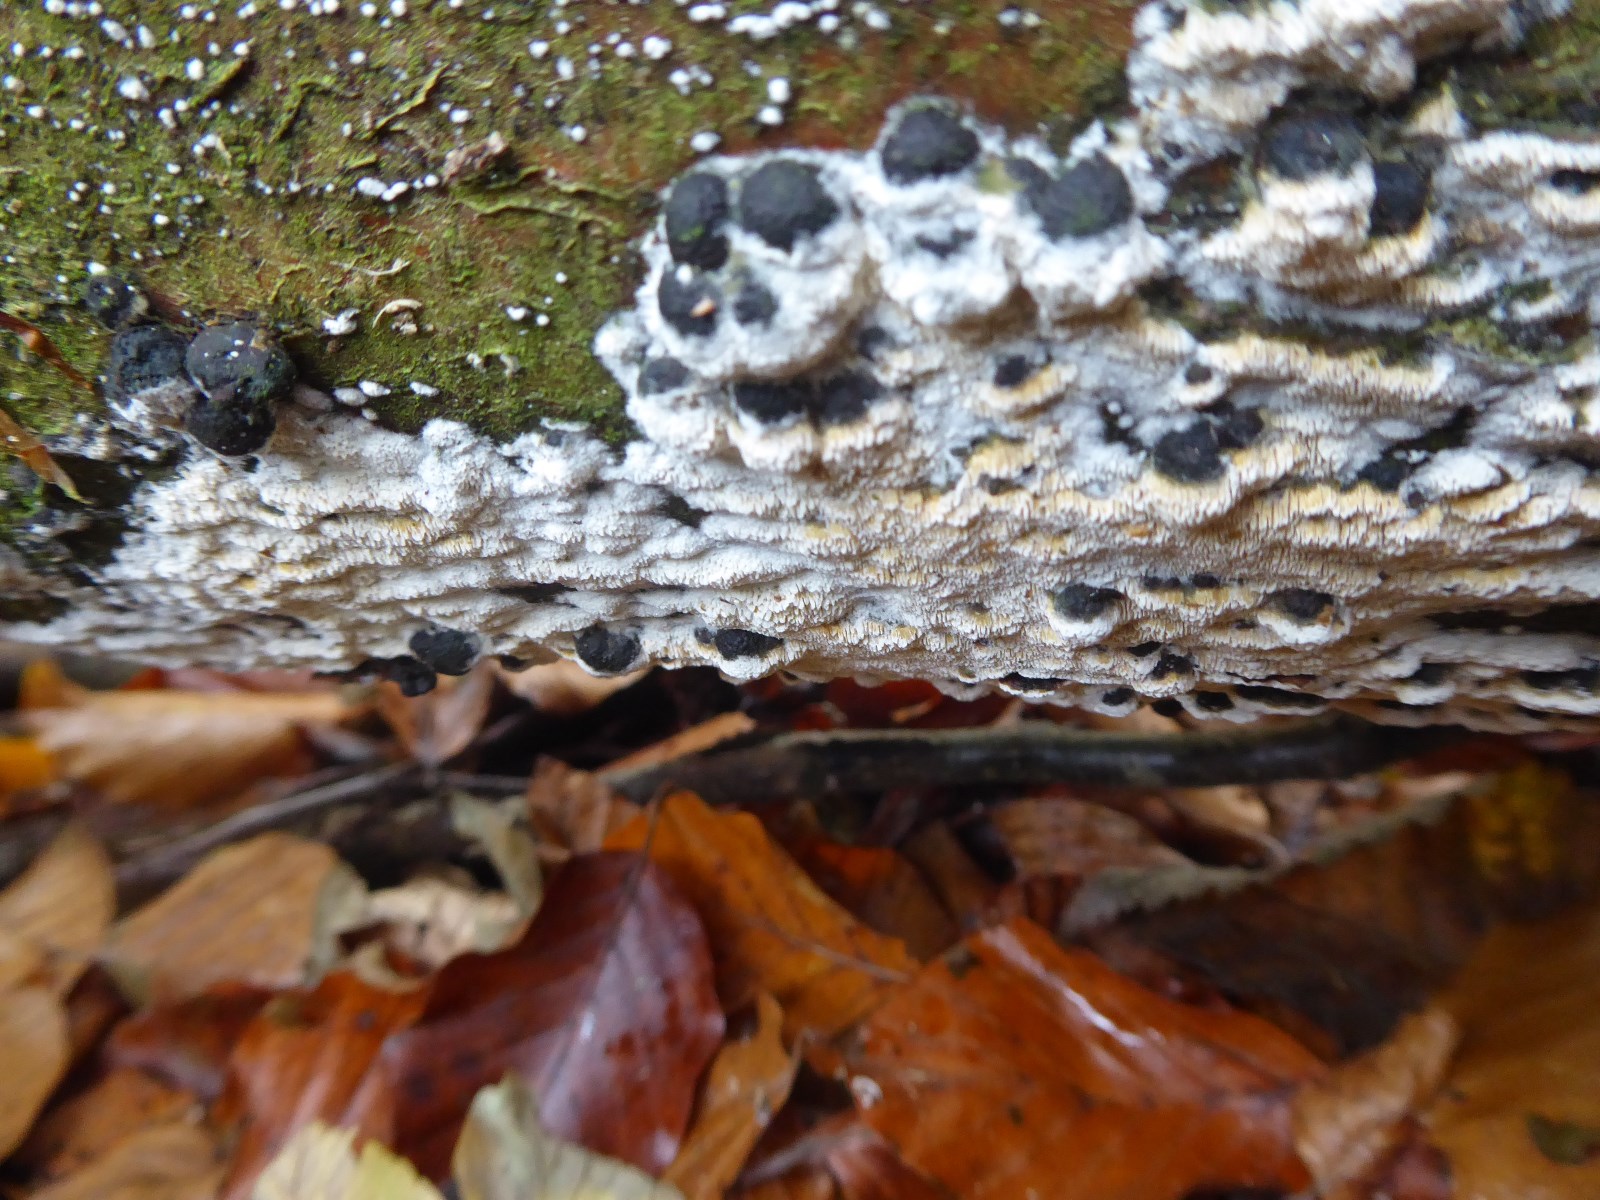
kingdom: Fungi
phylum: Basidiomycota
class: Agaricomycetes
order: Hymenochaetales
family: Schizoporaceae
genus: Xylodon
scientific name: Xylodon flaviporus
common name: gulporet tandsvamp
